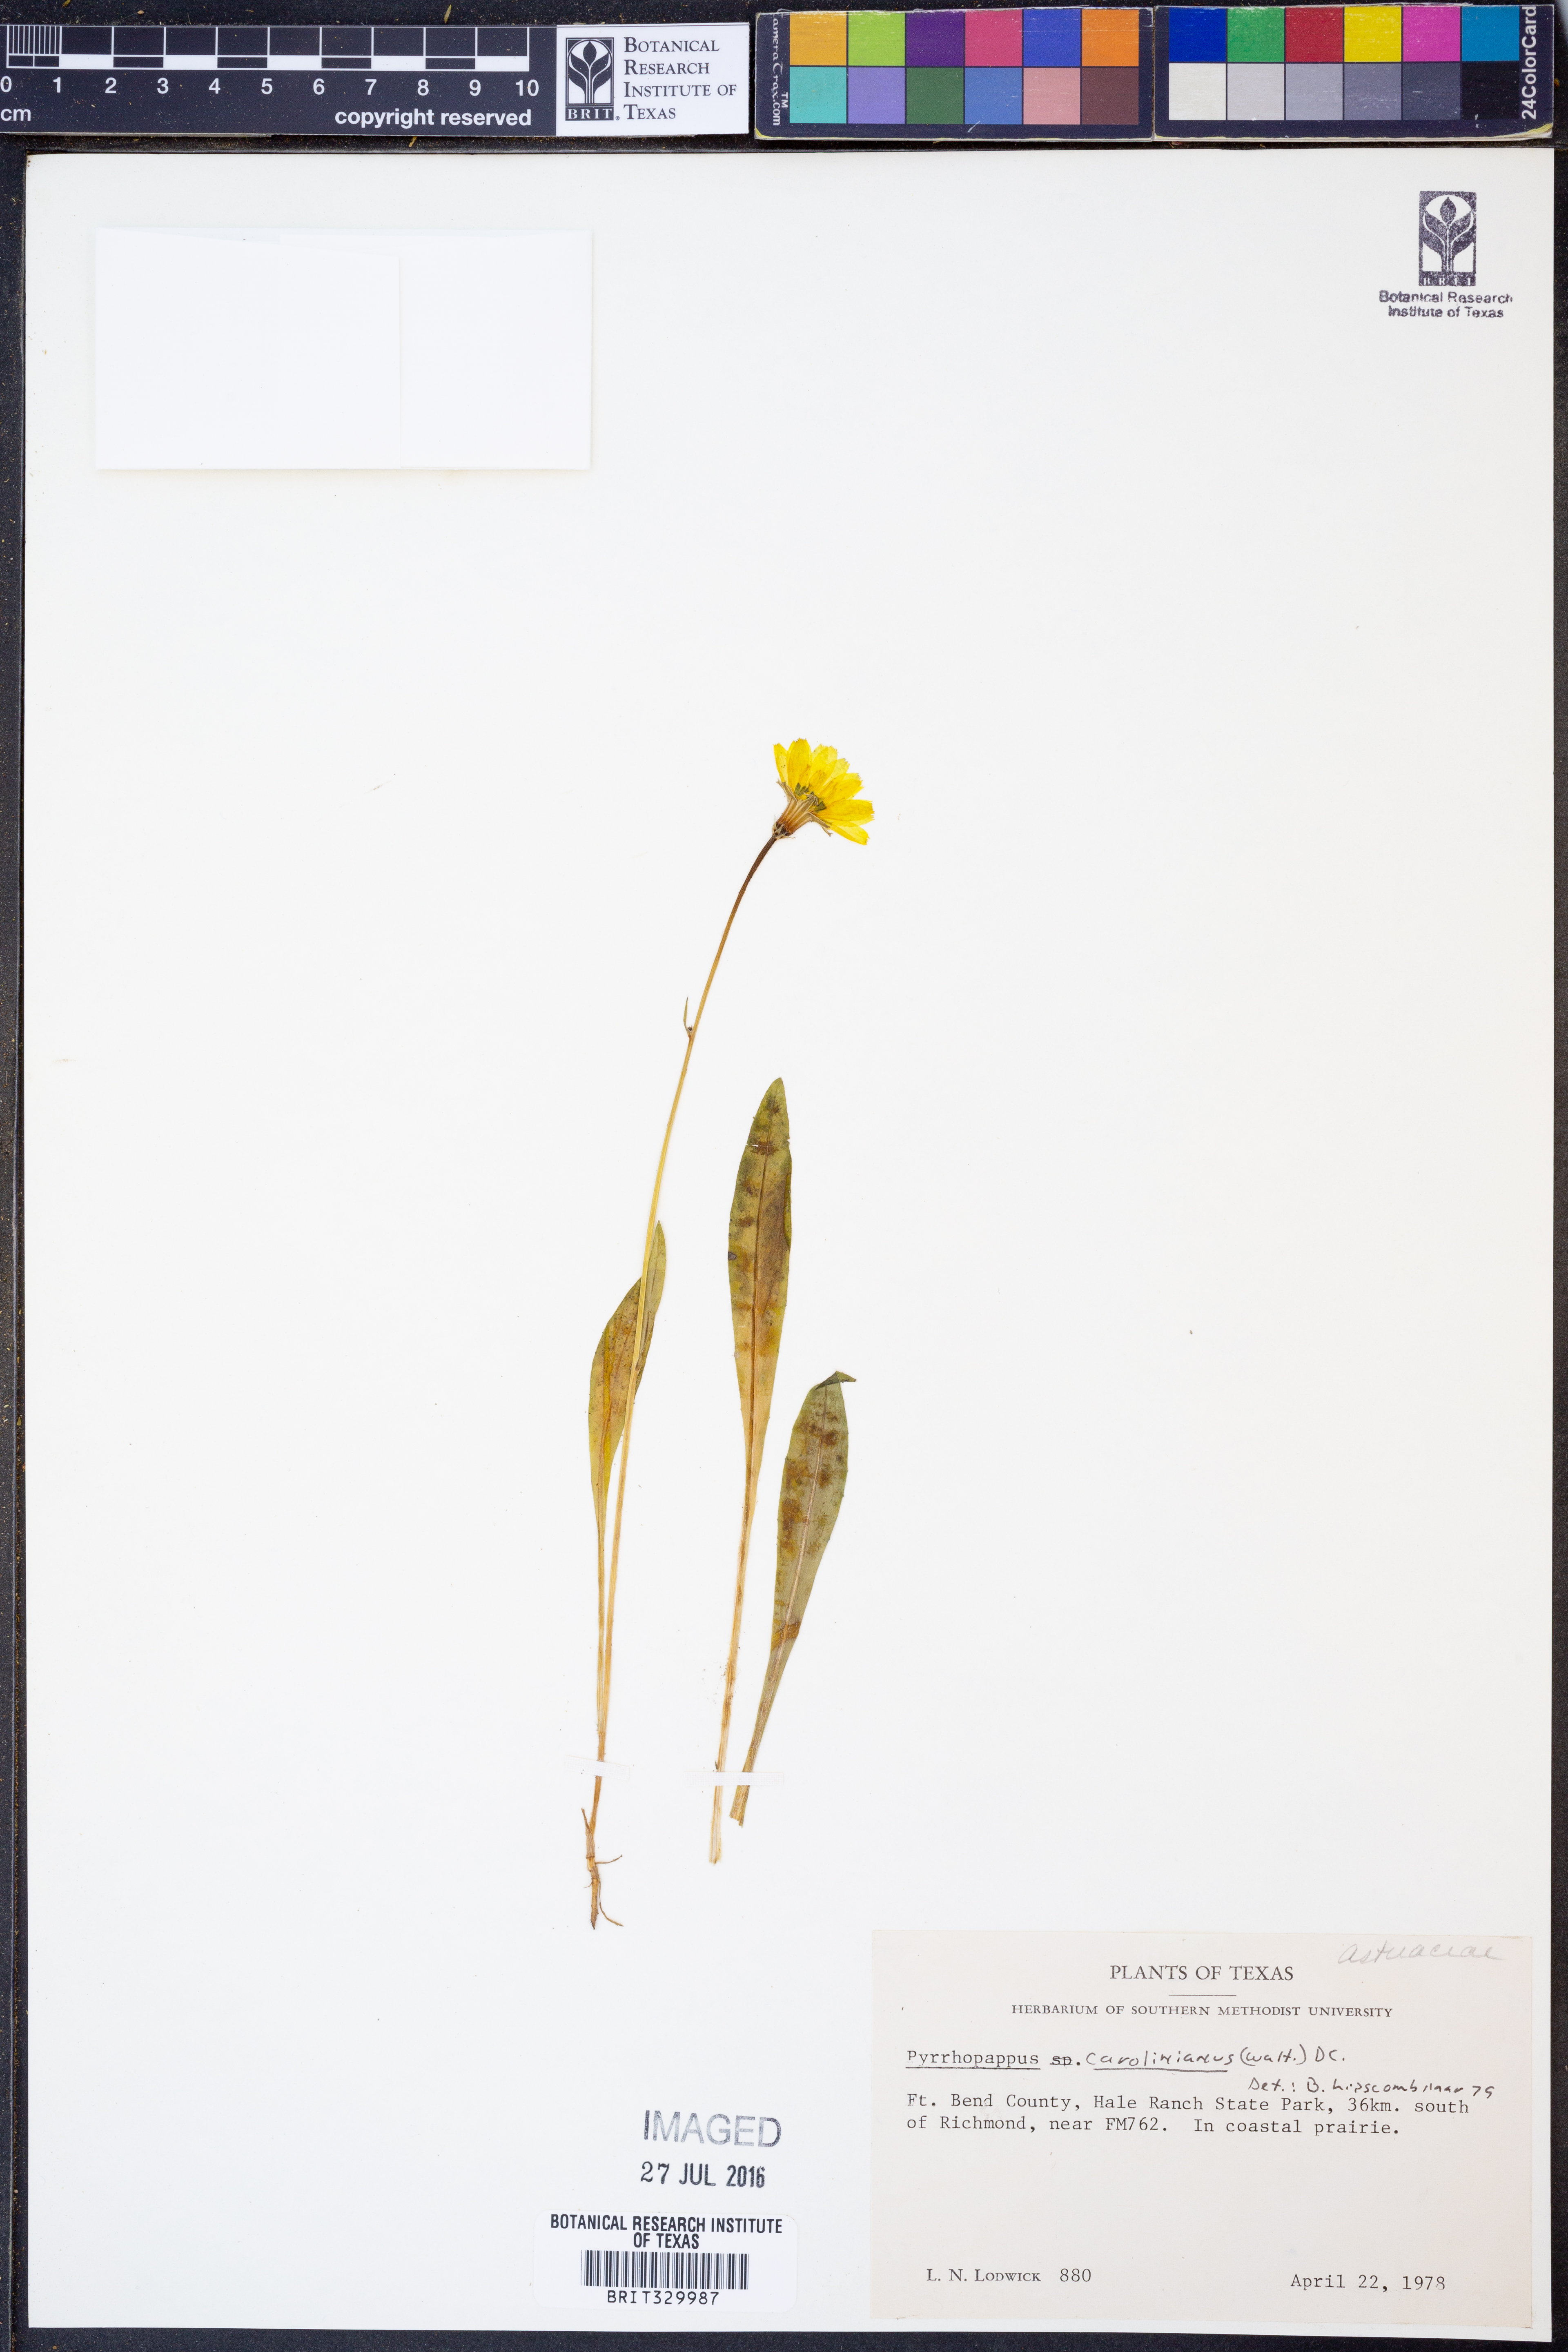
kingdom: Plantae
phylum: Tracheophyta
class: Magnoliopsida
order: Asterales
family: Asteraceae
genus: Pyrrhopappus
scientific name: Pyrrhopappus carolinianus
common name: Carolina desert-chicory
